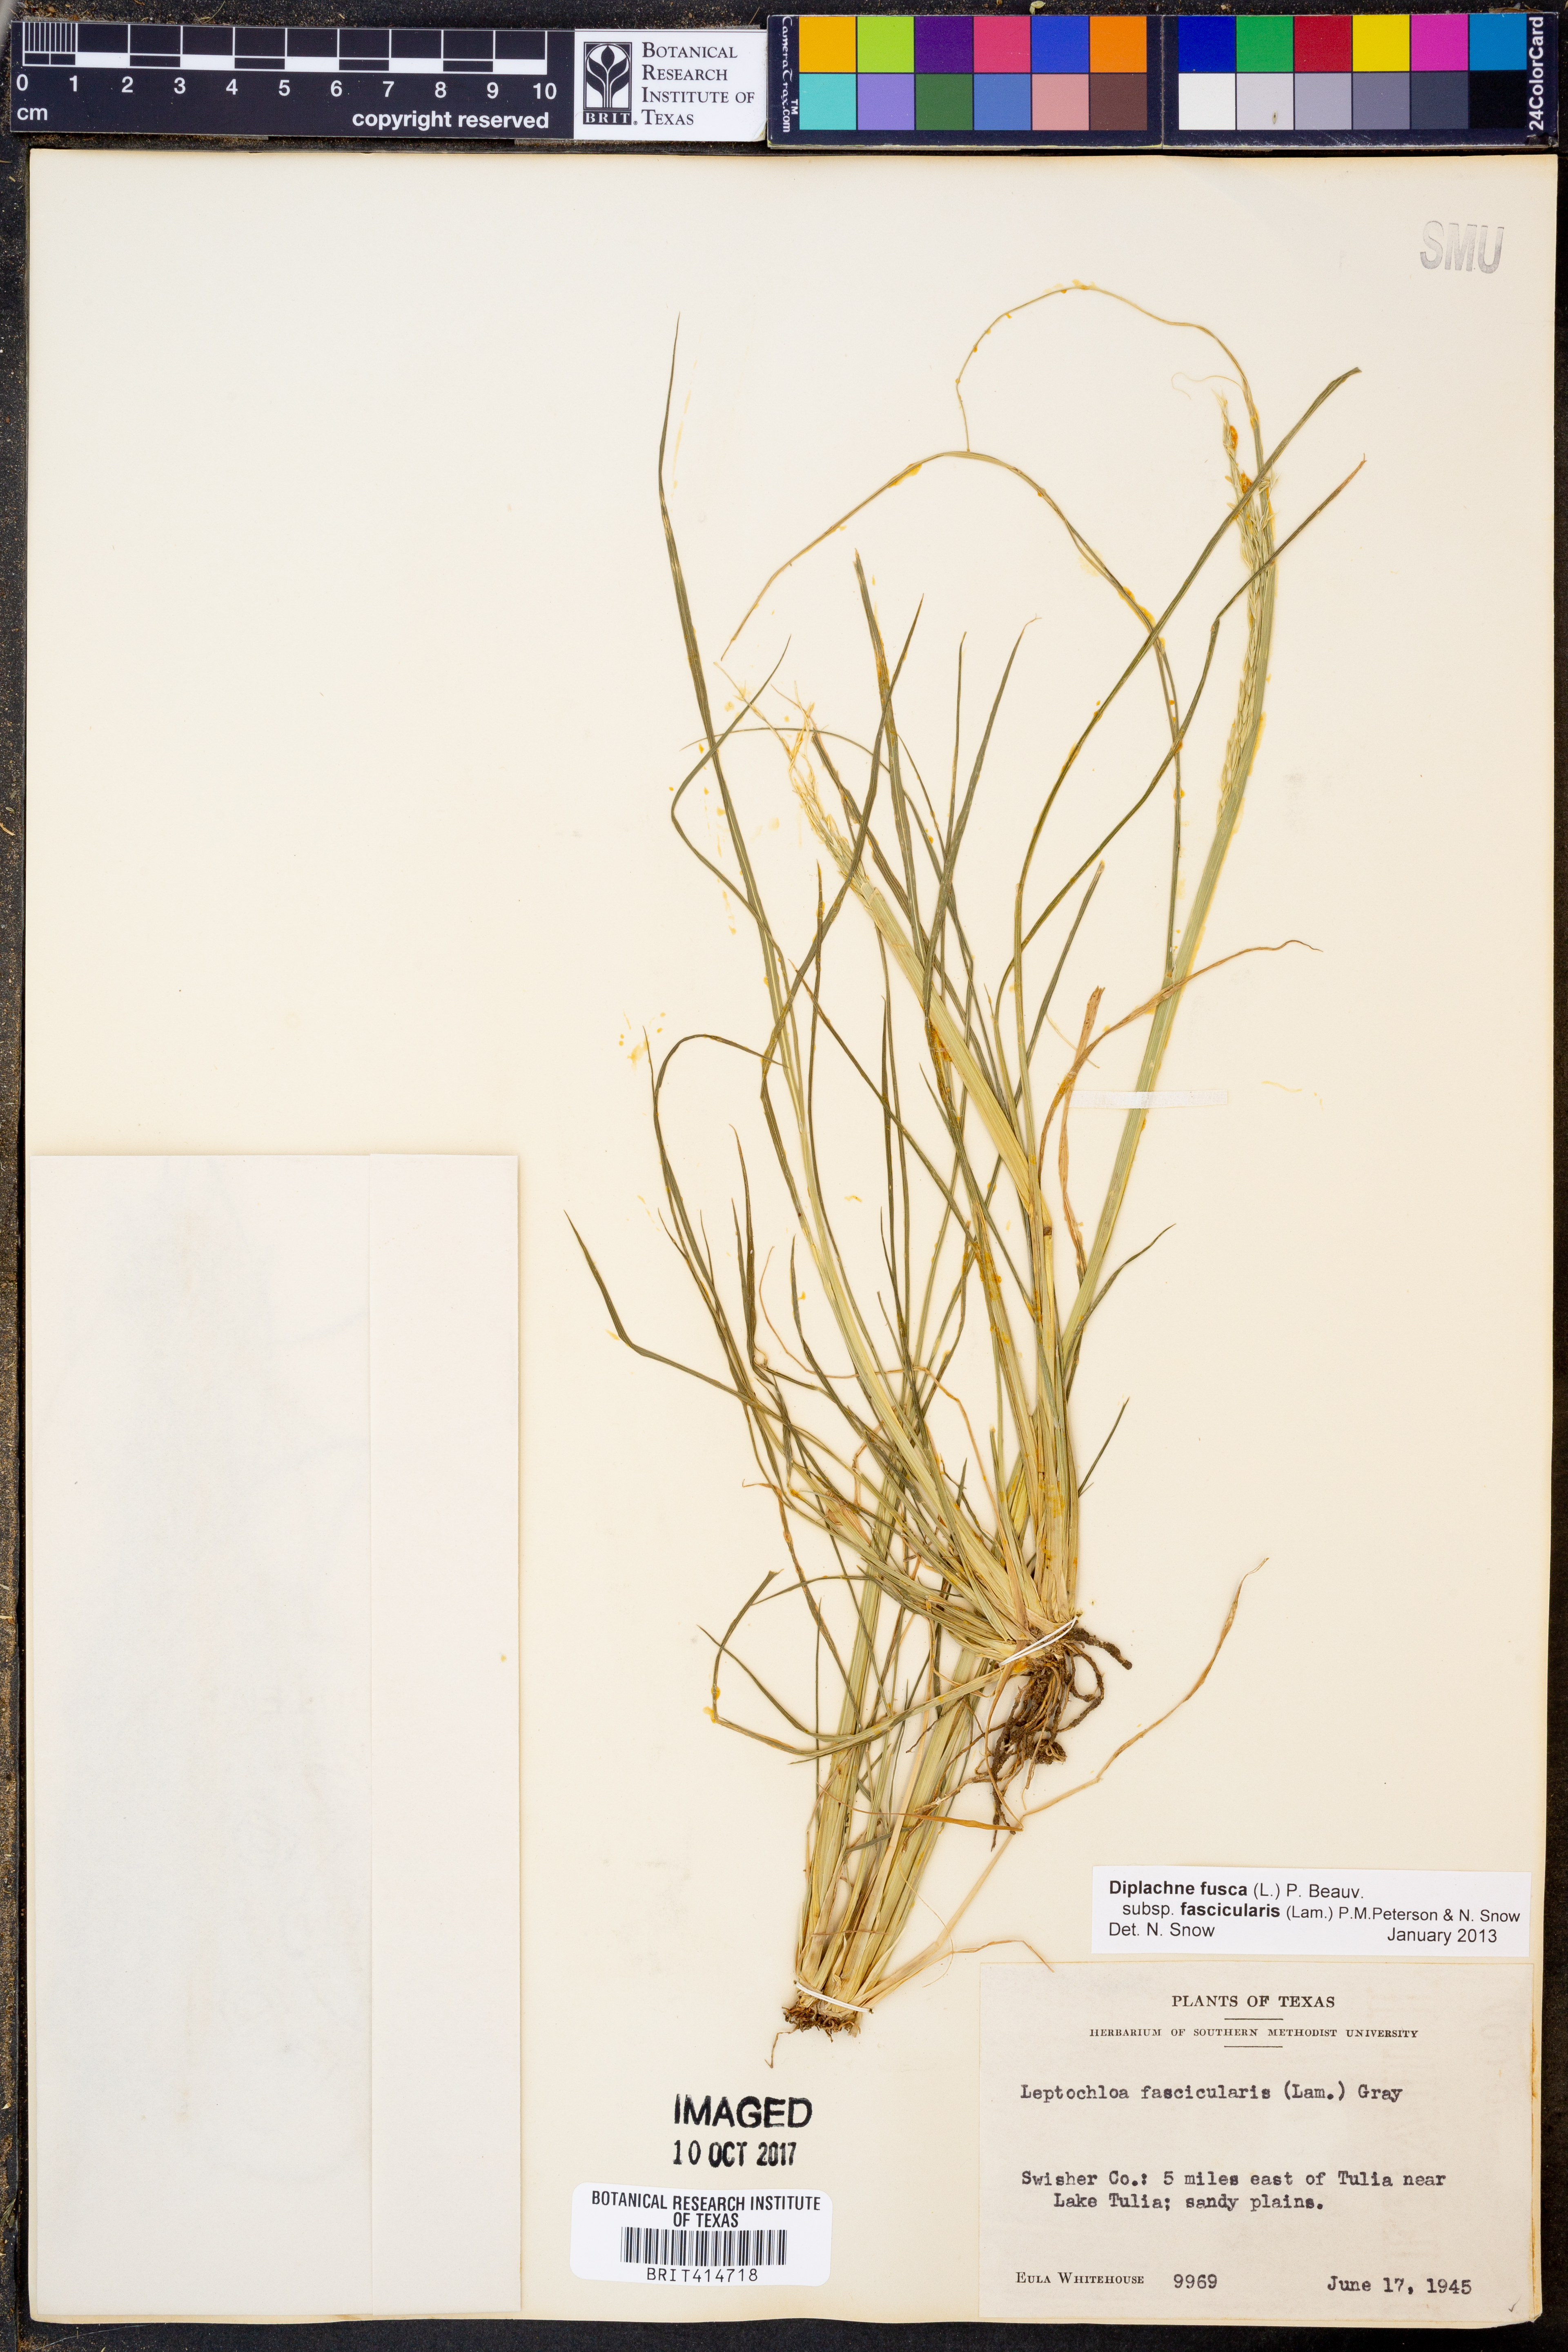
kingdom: Plantae
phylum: Tracheophyta
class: Liliopsida
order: Poales
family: Poaceae
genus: Diplachne
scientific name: Diplachne fusca
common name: Brown beetle grass
